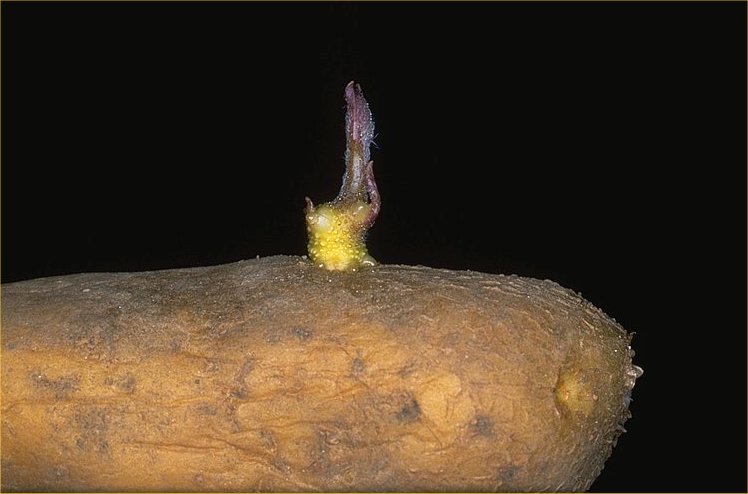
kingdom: Plantae
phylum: Tracheophyta
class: Magnoliopsida
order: Solanales
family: Solanaceae
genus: Solanum
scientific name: Solanum tuberosum
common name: Potato
